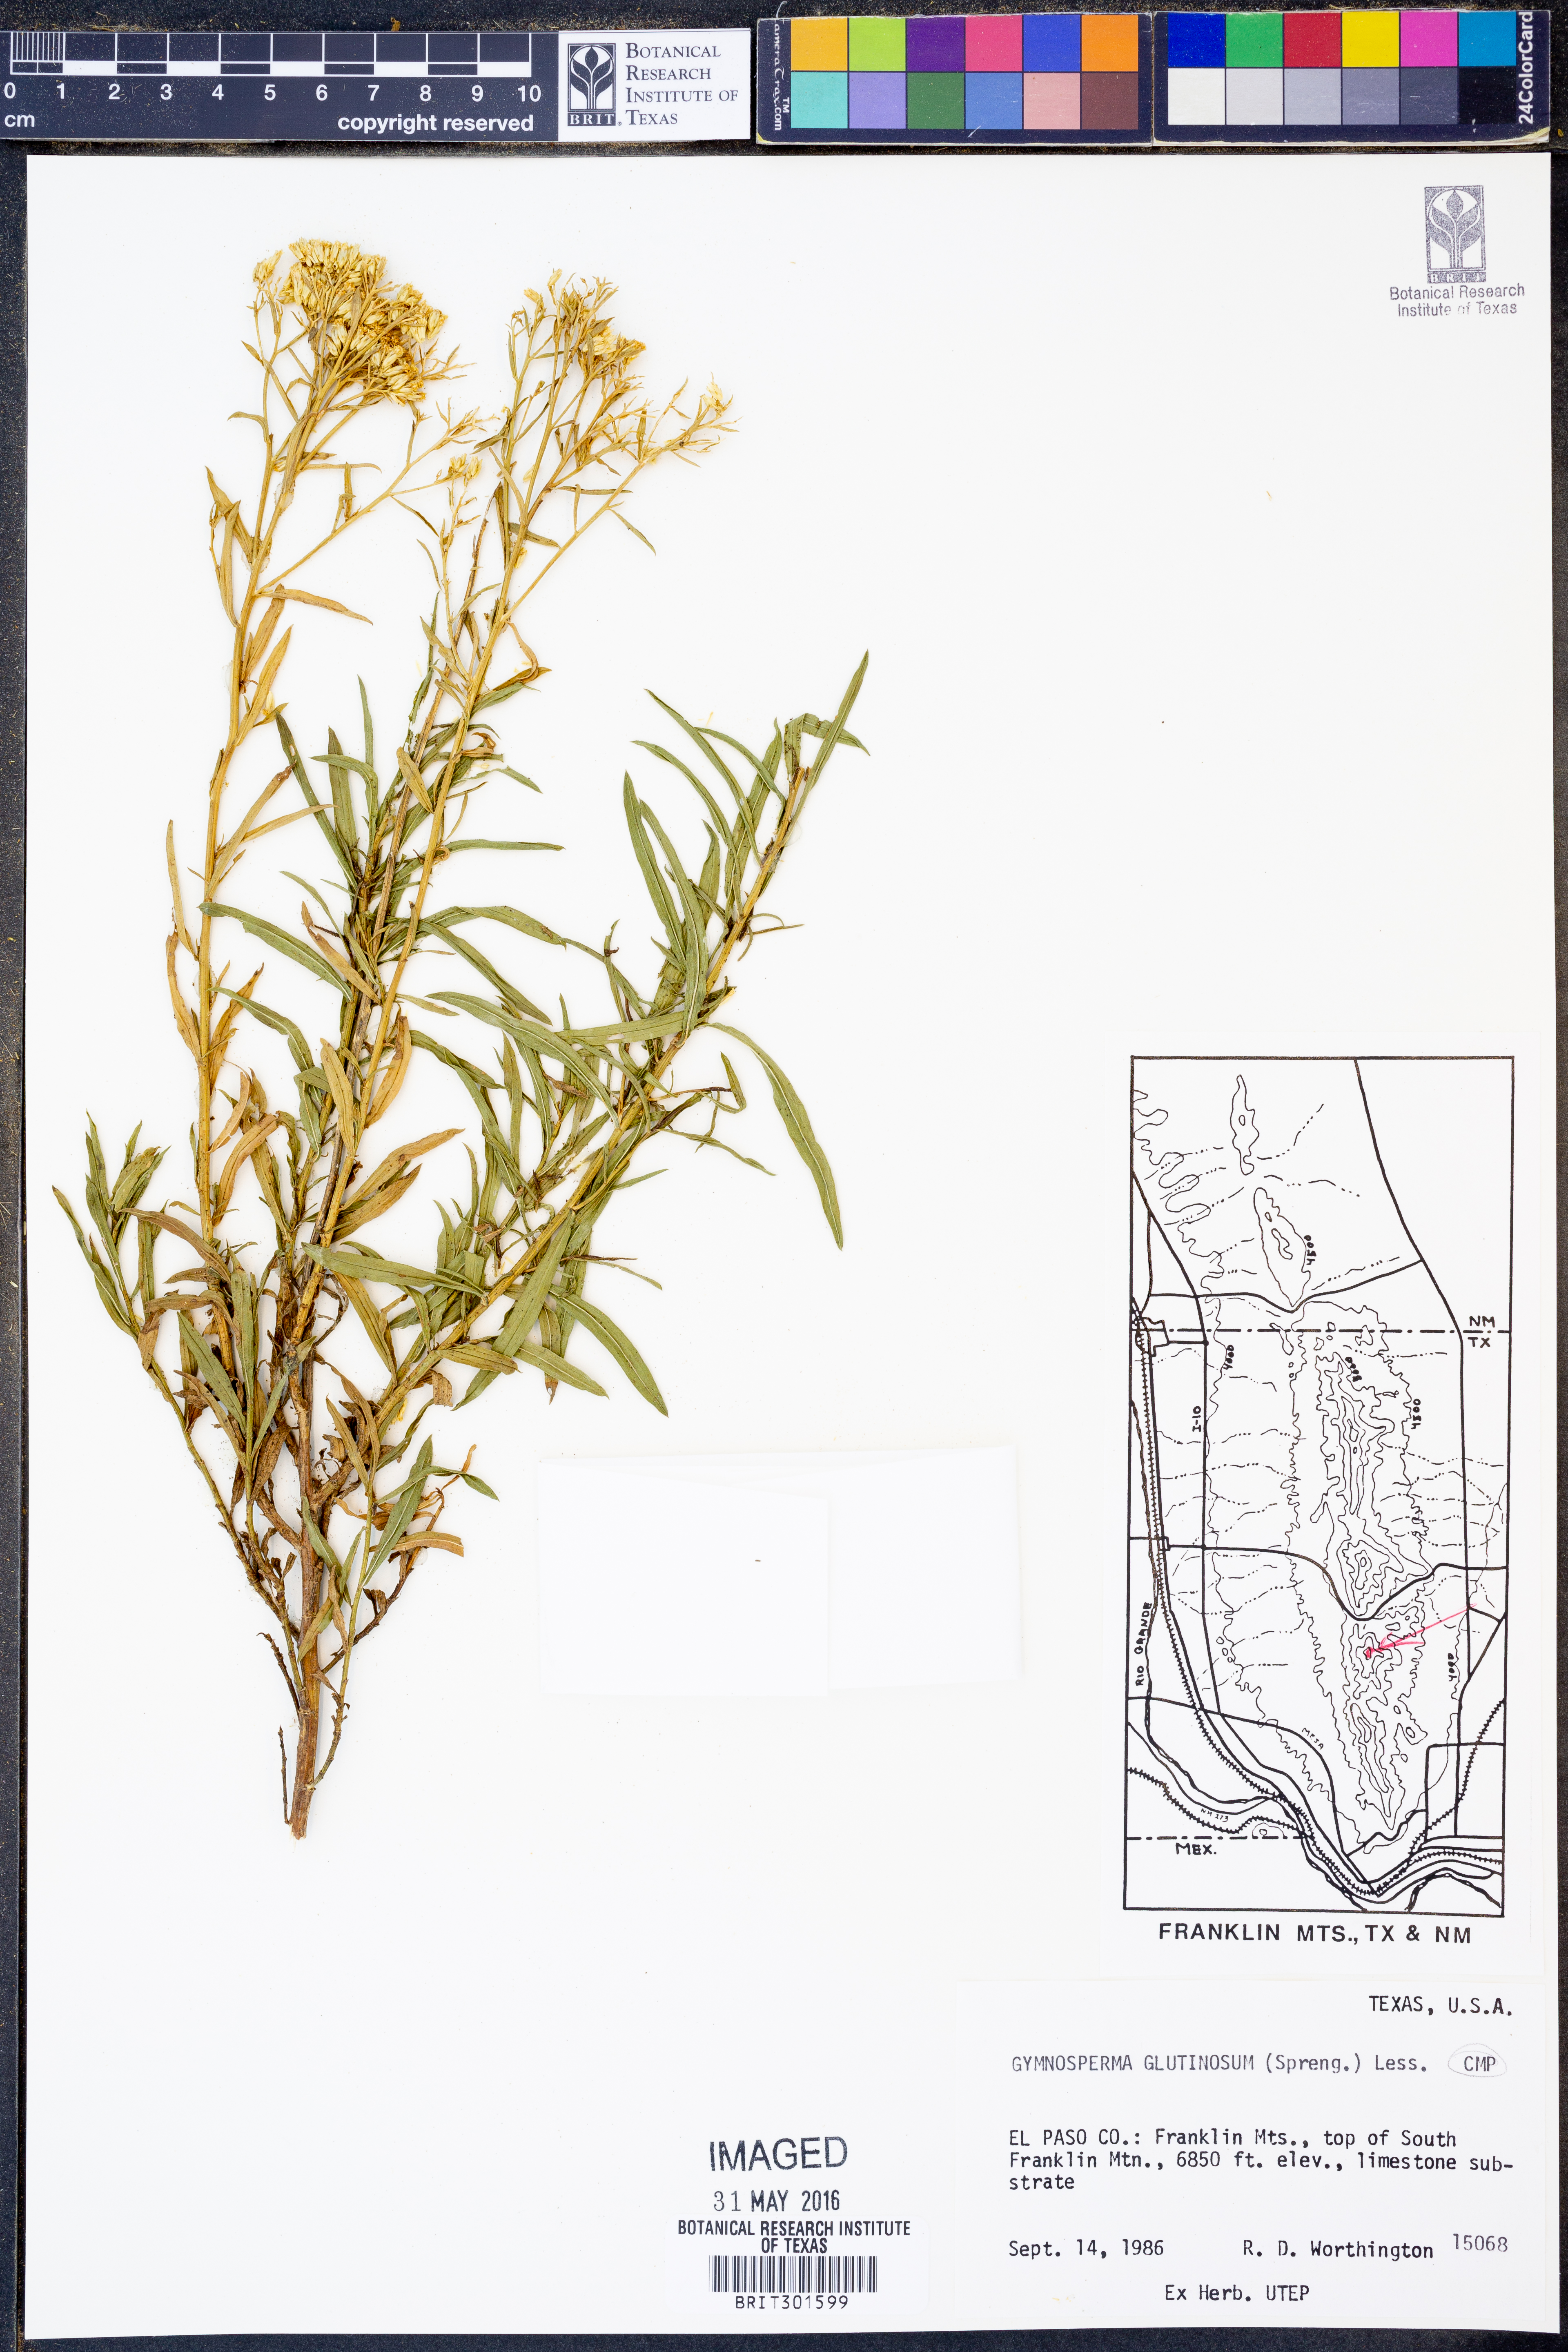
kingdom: Plantae
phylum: Tracheophyta
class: Magnoliopsida
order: Asterales
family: Asteraceae
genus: Gymnosperma
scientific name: Gymnosperma glutinosum
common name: Gumhead
